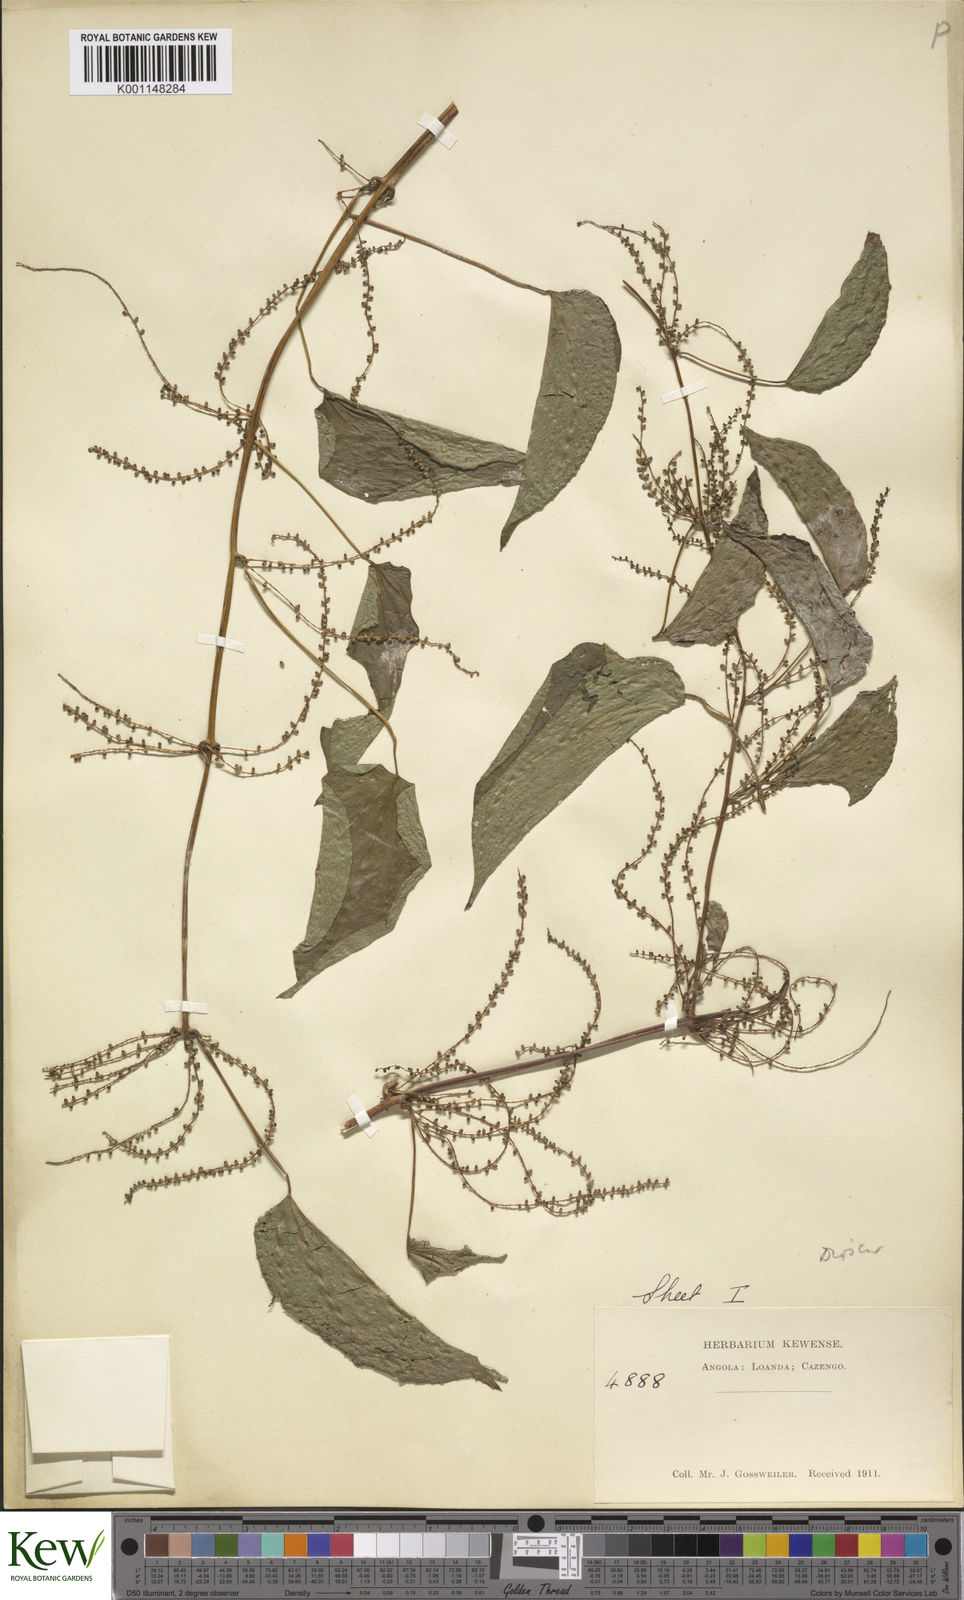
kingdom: Plantae
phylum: Tracheophyta
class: Liliopsida
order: Dioscoreales
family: Dioscoreaceae
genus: Dioscorea
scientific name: Dioscorea praehensilis
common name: Bush yam
